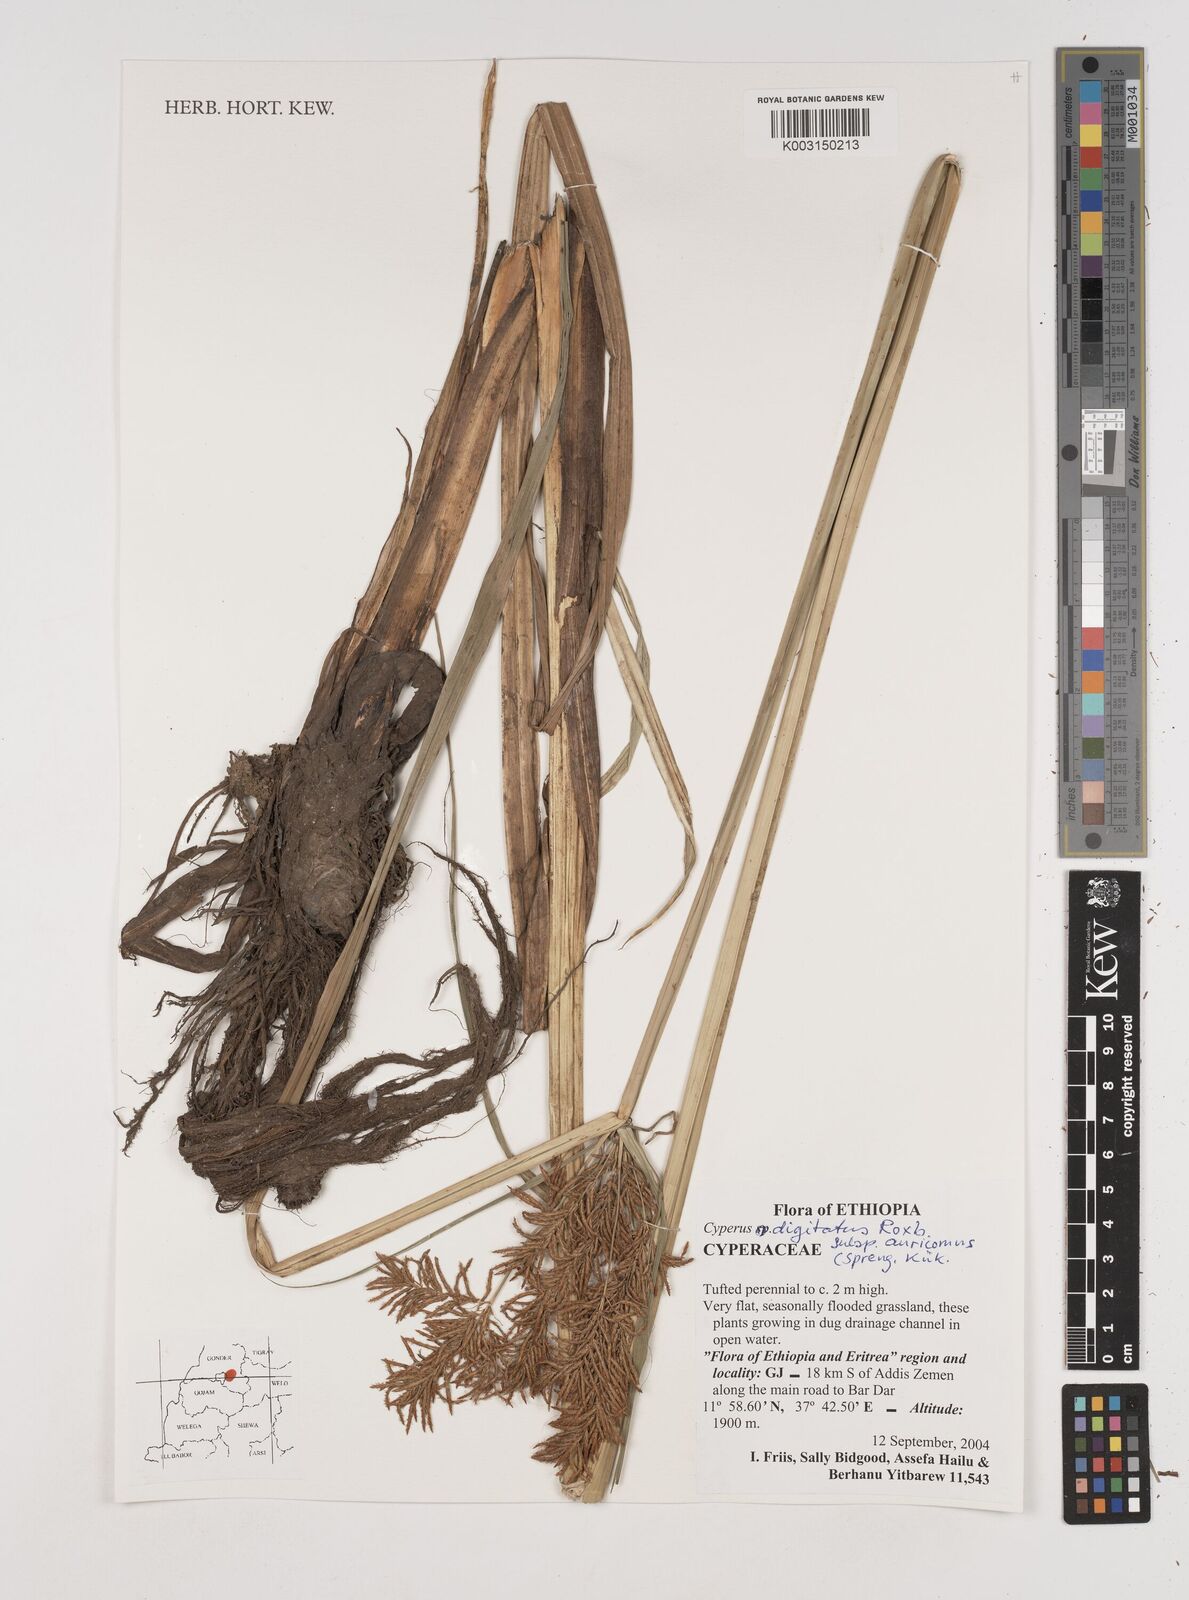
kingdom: Plantae
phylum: Tracheophyta
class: Liliopsida
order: Poales
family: Cyperaceae
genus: Cyperus
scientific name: Cyperus digitatus
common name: Finger flatsedge
